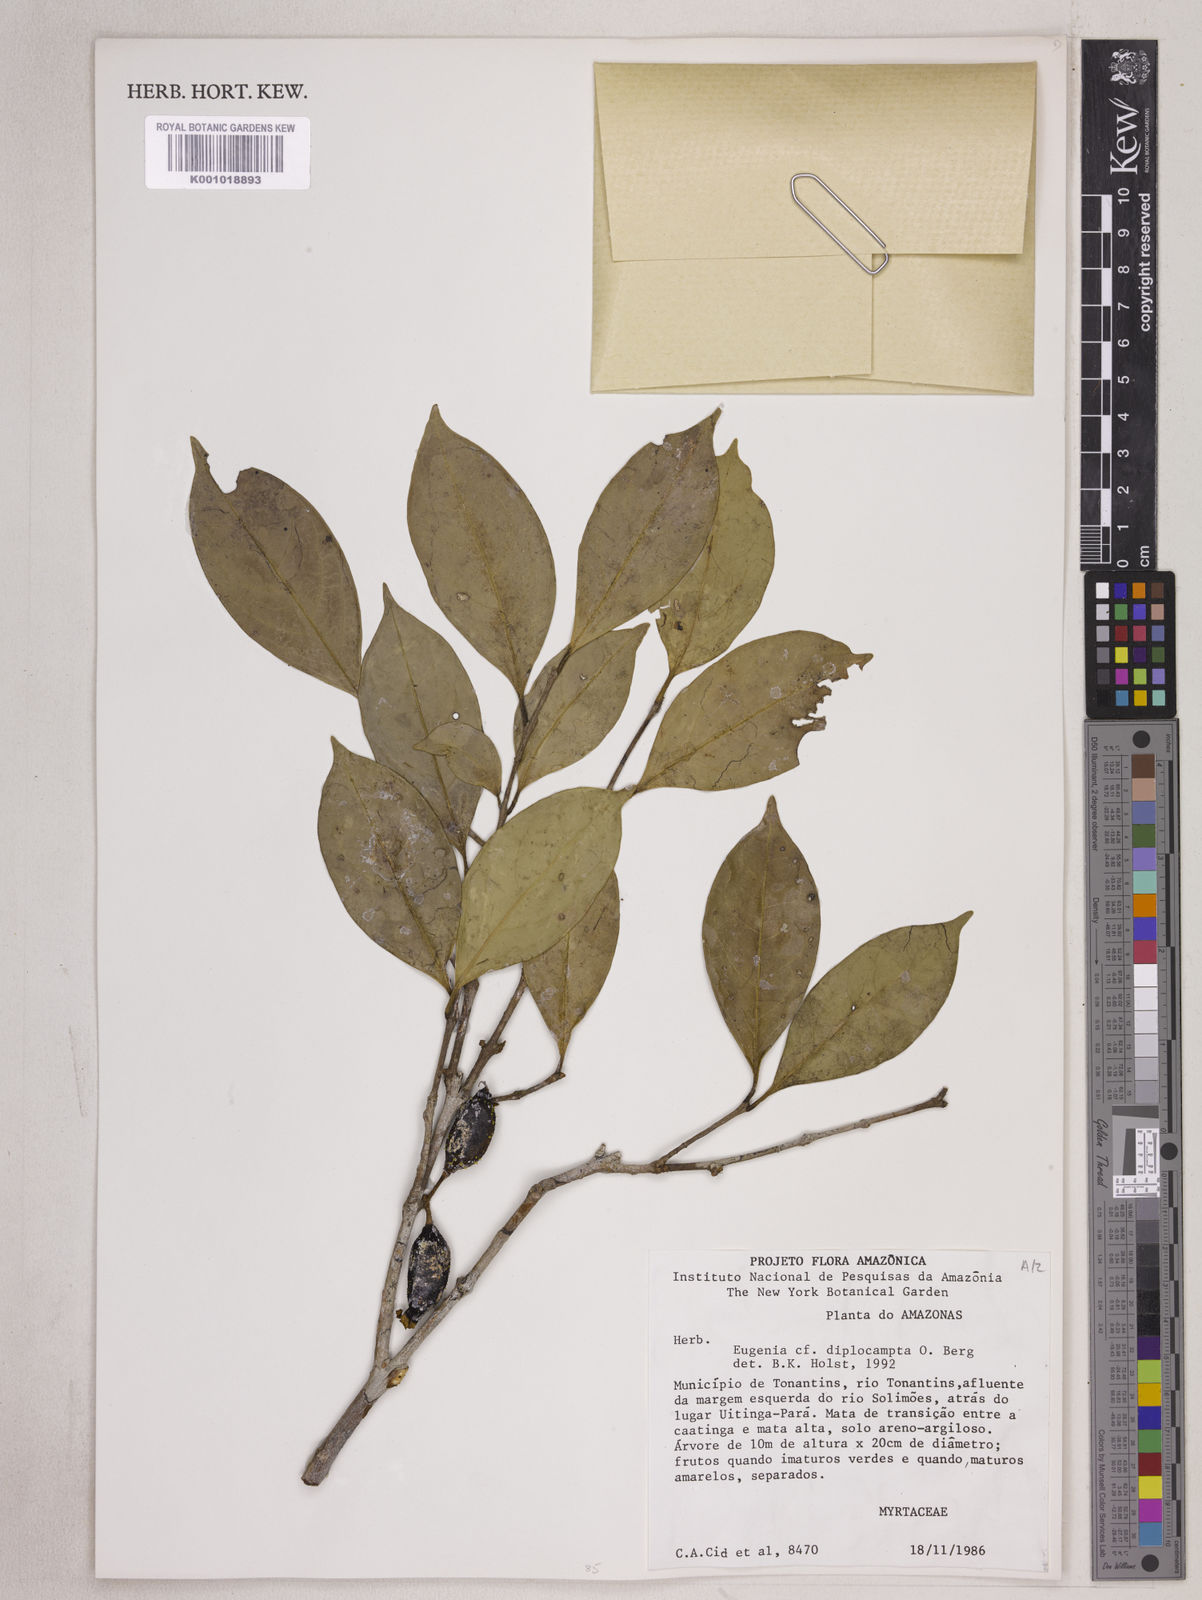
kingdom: Plantae
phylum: Tracheophyta
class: Magnoliopsida
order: Myrtales
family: Myrtaceae
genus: Calycorectes
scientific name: Calycorectes costata
